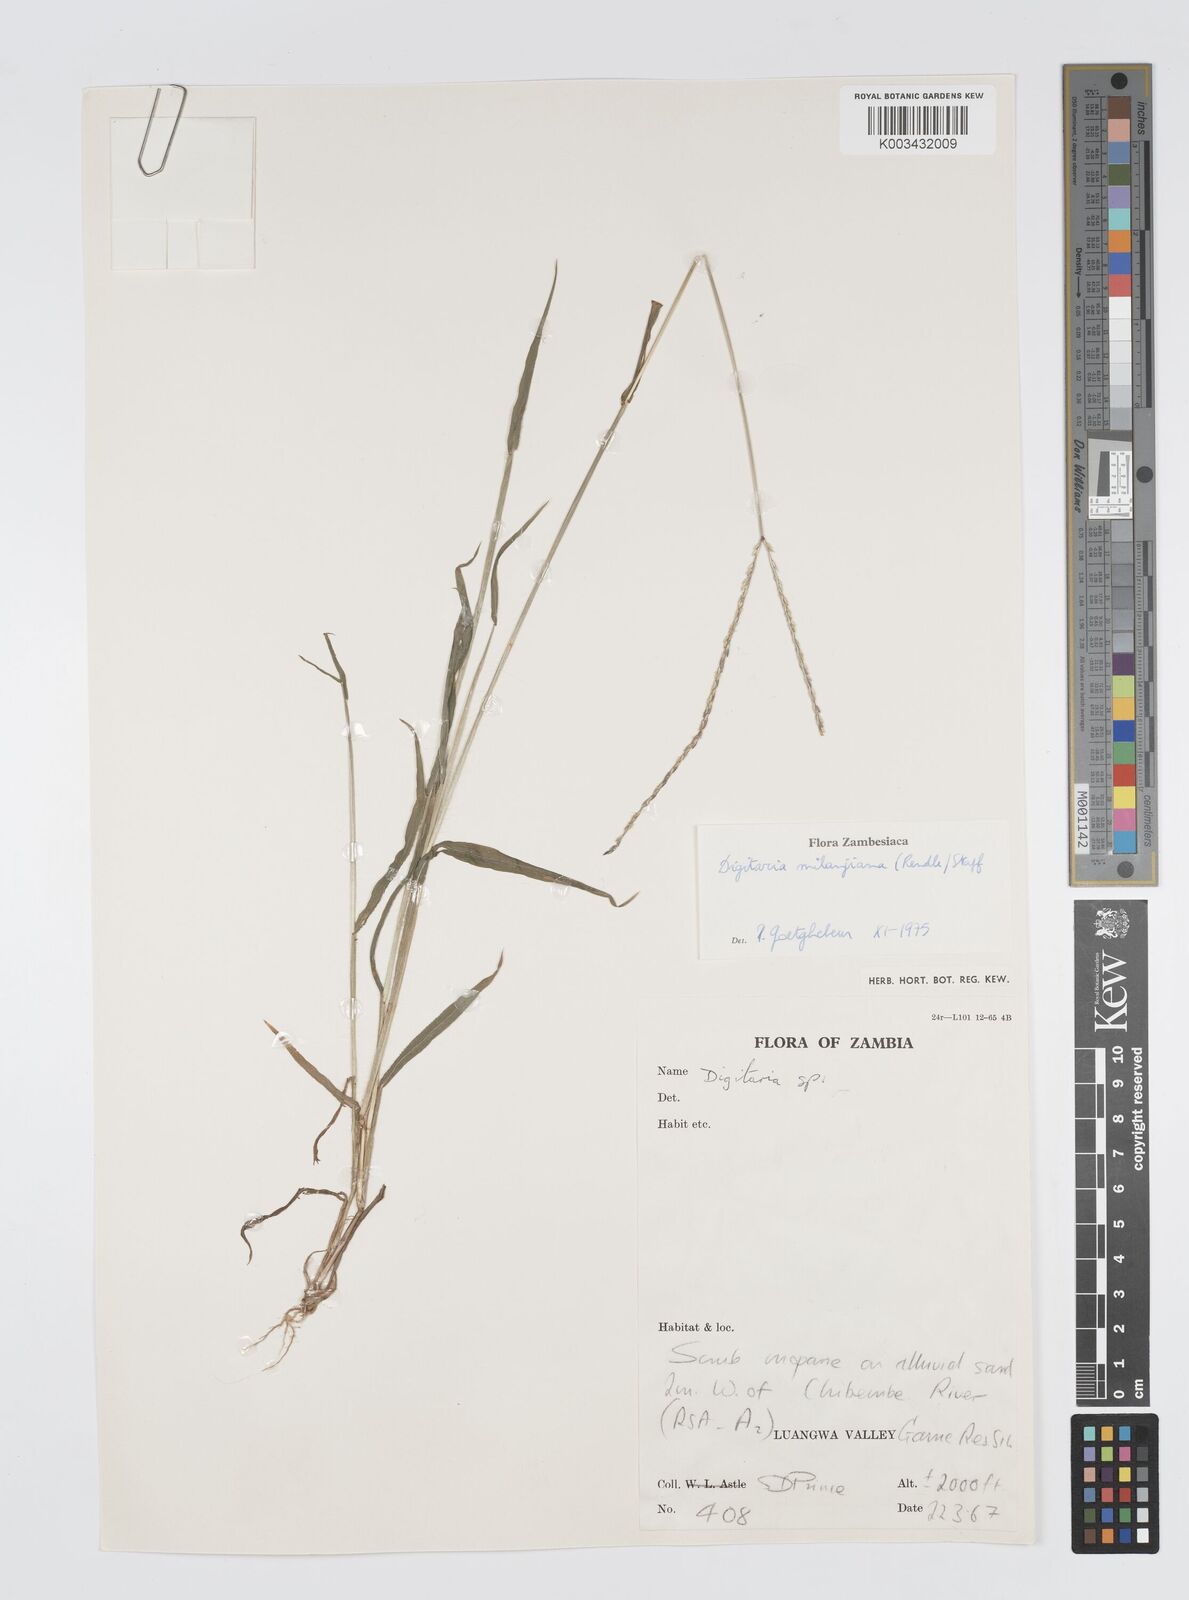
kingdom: Plantae
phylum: Tracheophyta
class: Liliopsida
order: Poales
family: Poaceae
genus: Digitaria
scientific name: Digitaria milanjiana
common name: Madagascar crabgrass
